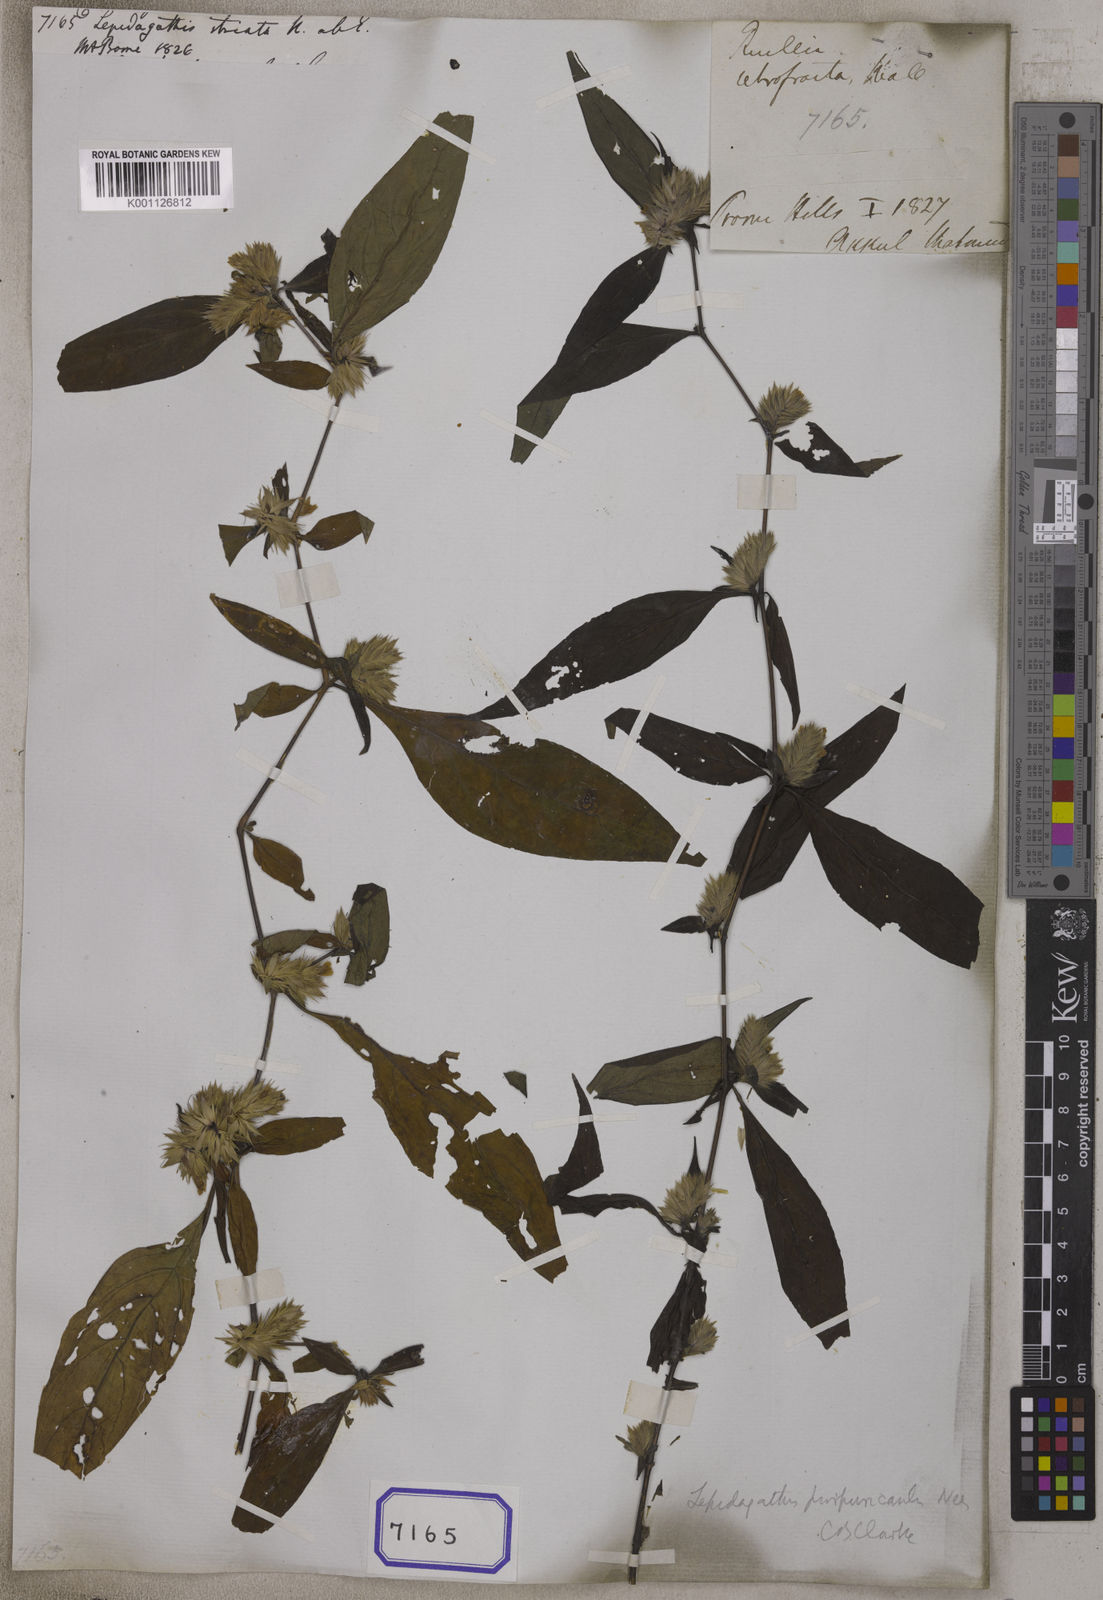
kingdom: Plantae
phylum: Tracheophyta
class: Magnoliopsida
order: Lamiales
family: Acanthaceae
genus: Lepidagathis
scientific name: Lepidagathis purpuricaulis
